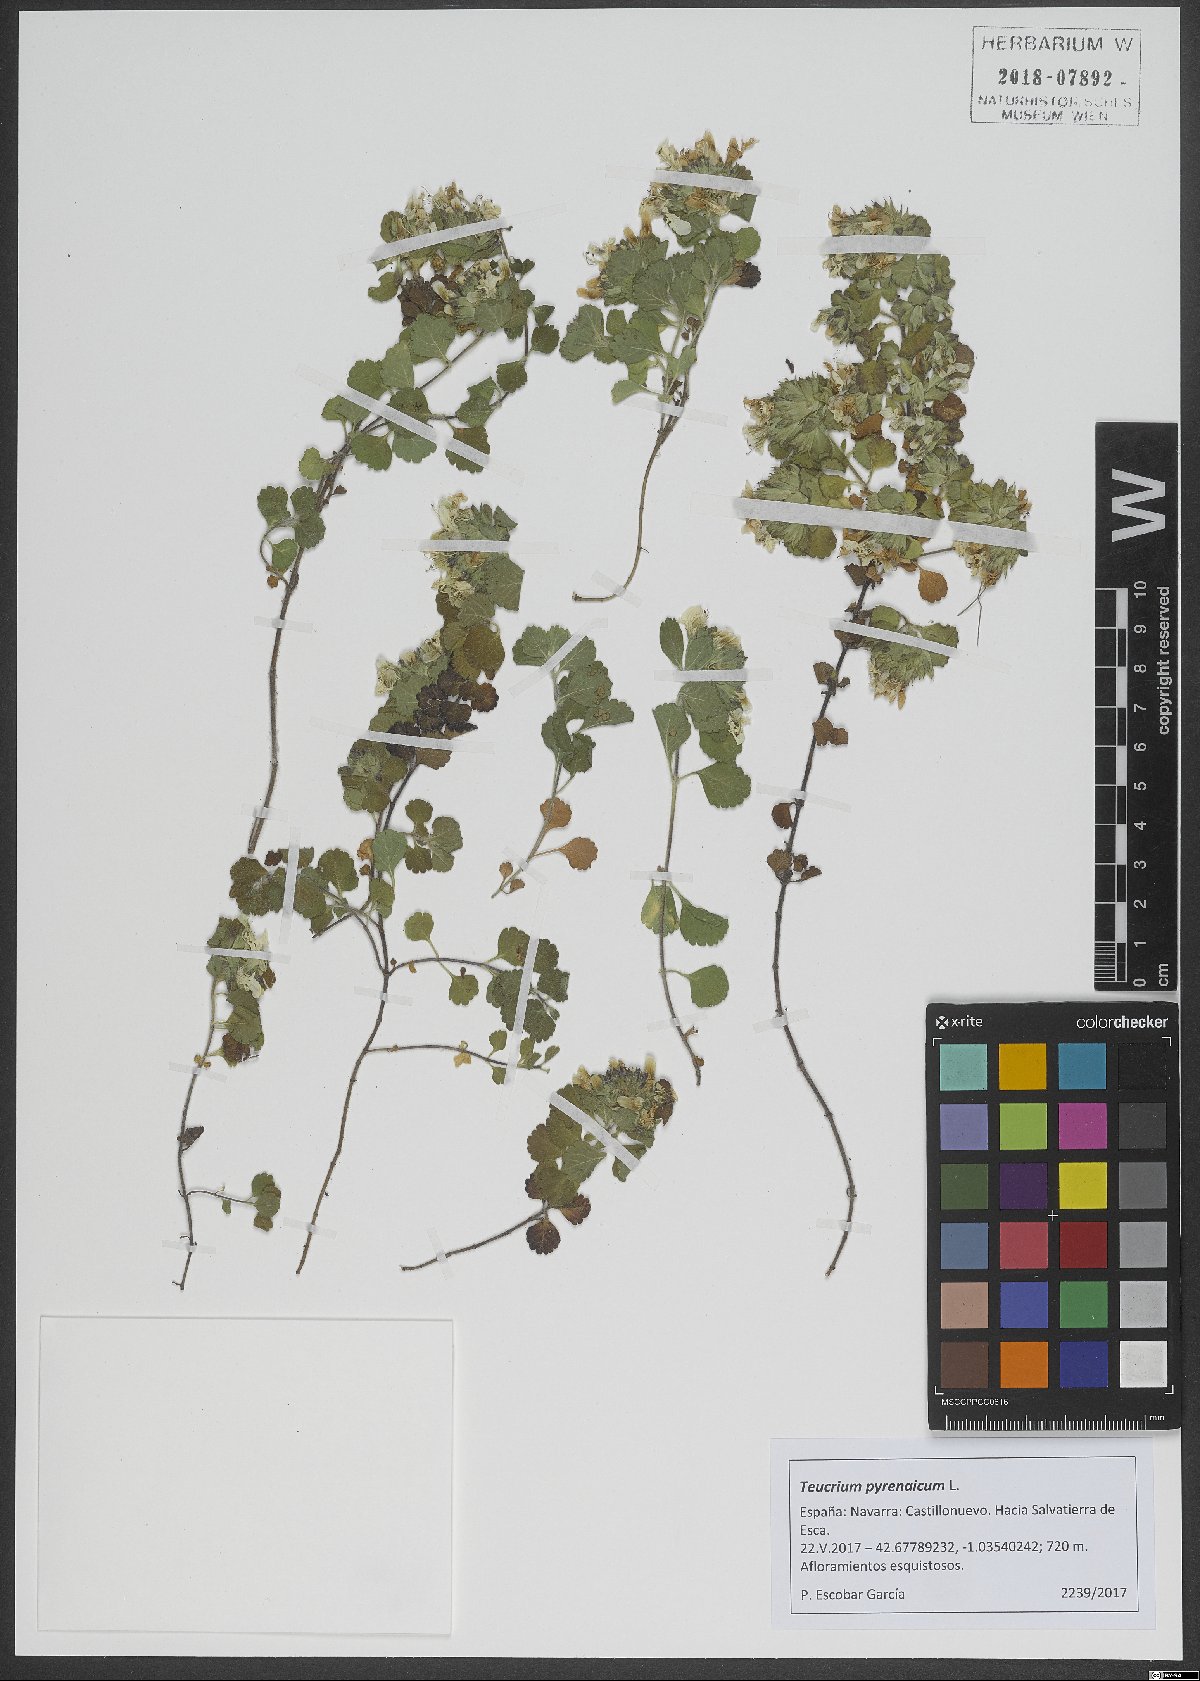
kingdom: Plantae
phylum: Tracheophyta
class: Magnoliopsida
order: Lamiales
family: Lamiaceae
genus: Teucrium
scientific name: Teucrium pyrenaicum
